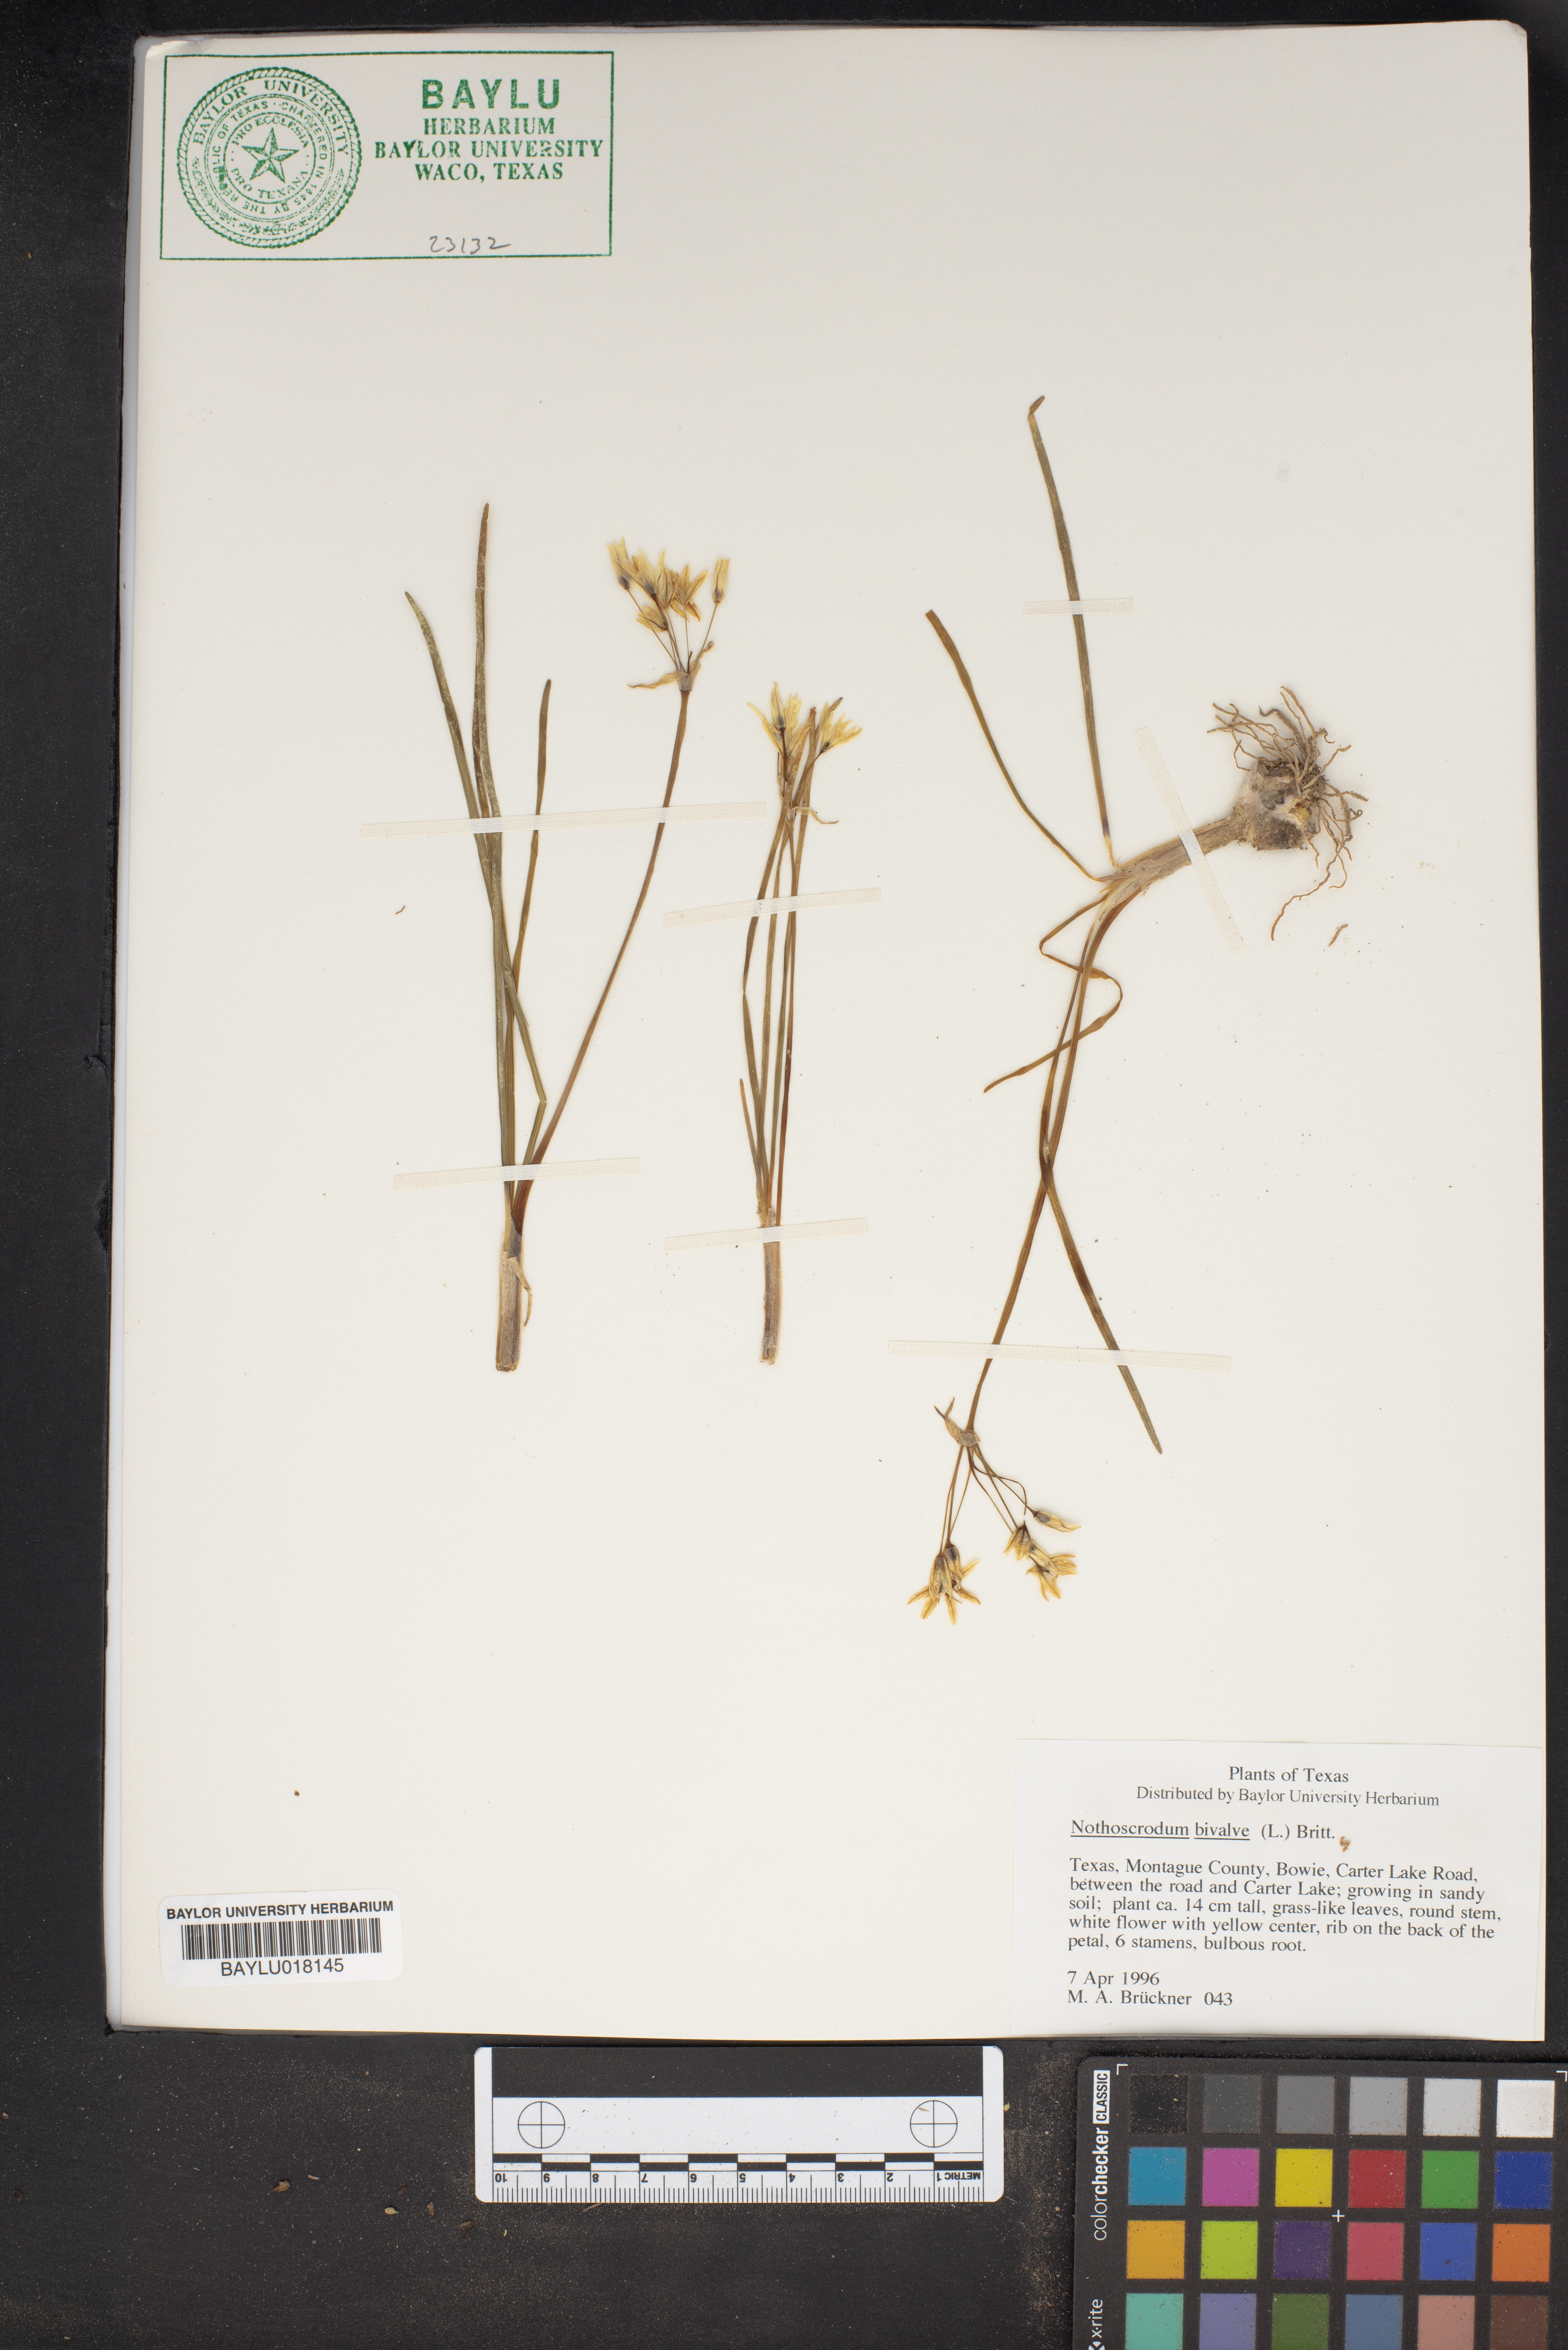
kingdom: Plantae
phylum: Tracheophyta
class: Liliopsida
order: Asparagales
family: Amaryllidaceae
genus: Nothoscordum
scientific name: Nothoscordum bivalve
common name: Crow-poison
